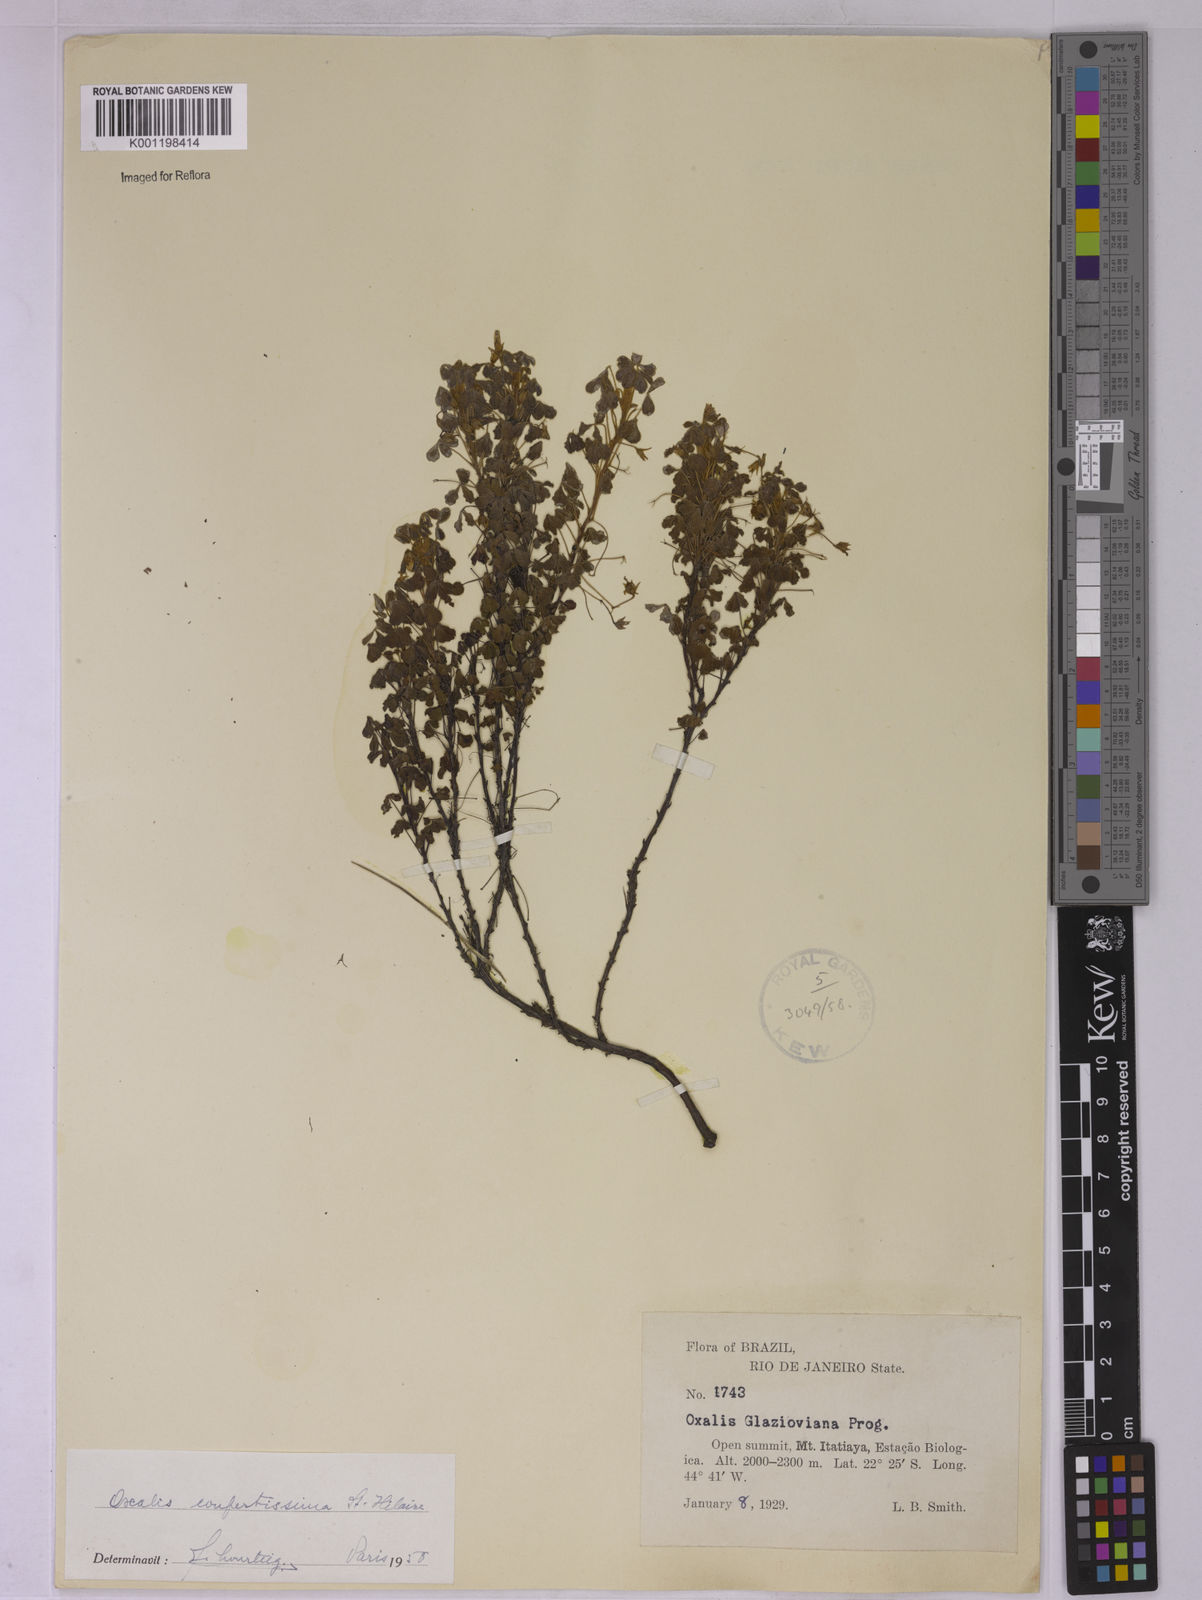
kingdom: Plantae
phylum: Tracheophyta
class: Magnoliopsida
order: Oxalidales
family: Oxalidaceae
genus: Oxalis
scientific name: Oxalis confertissima
